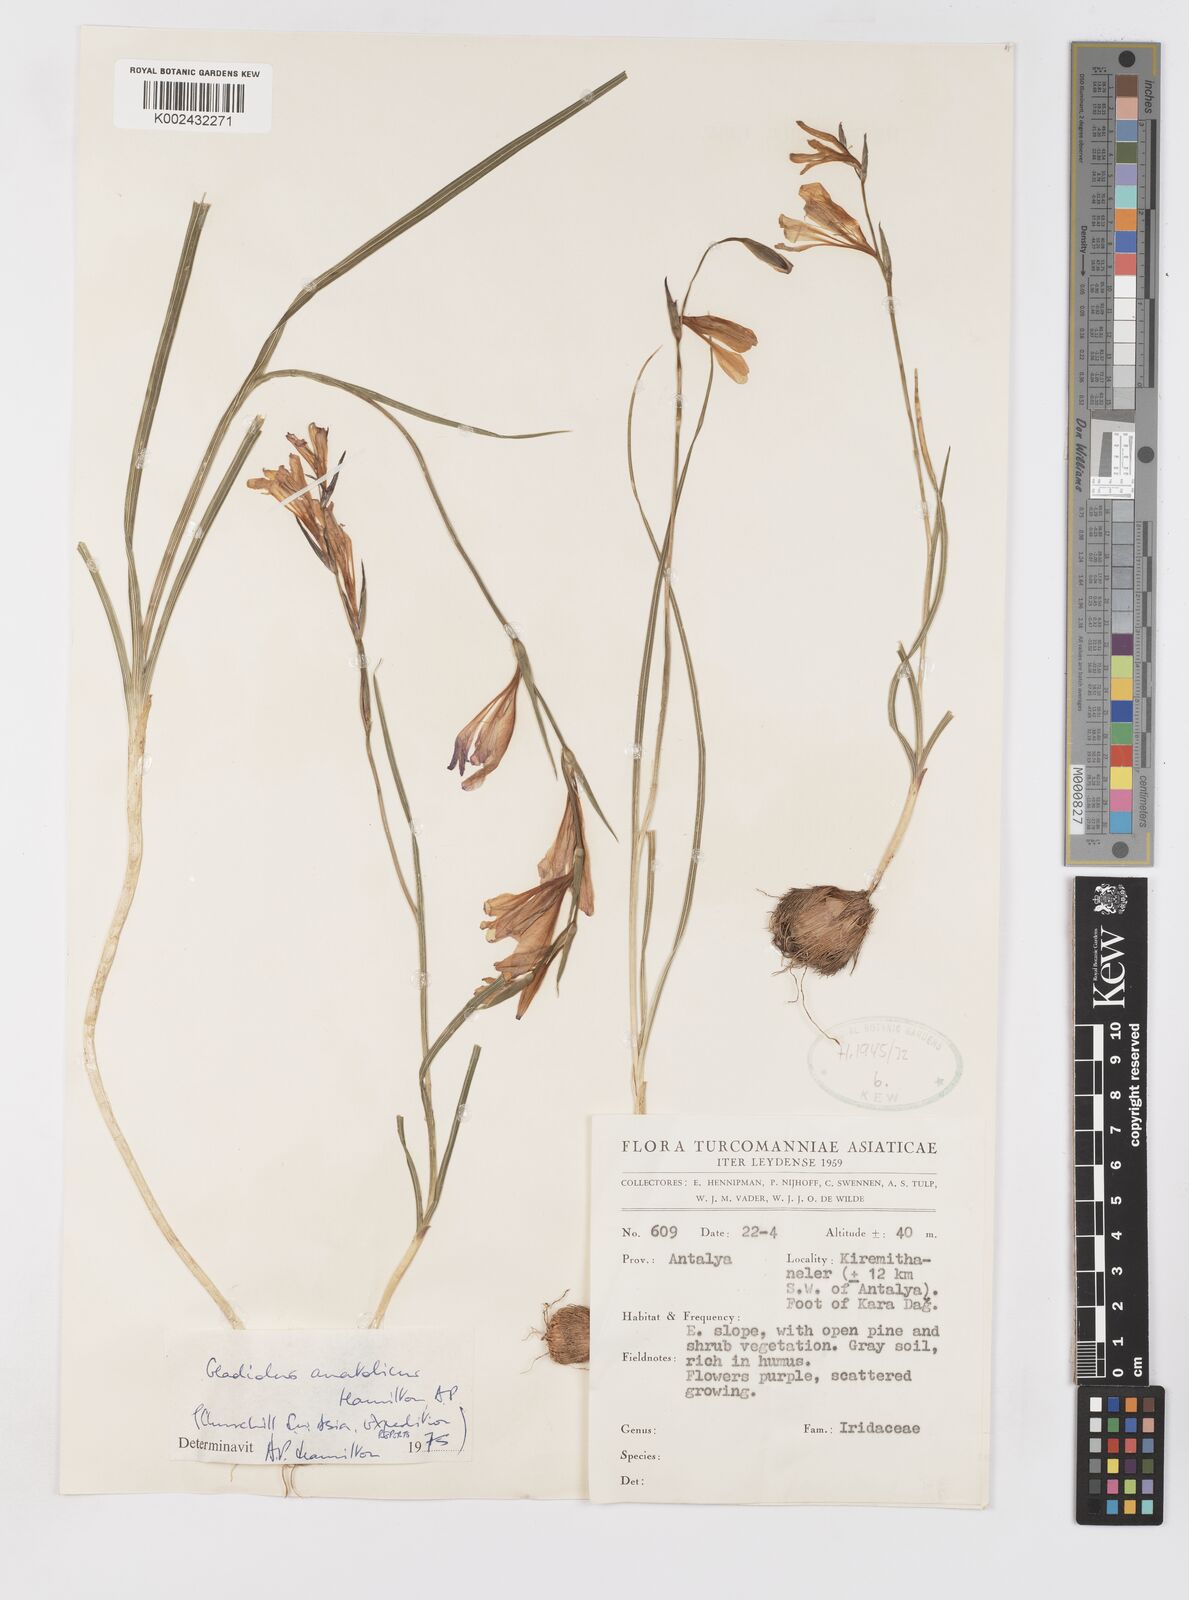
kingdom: Plantae
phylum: Tracheophyta
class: Liliopsida
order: Asparagales
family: Iridaceae
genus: Gladiolus
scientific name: Gladiolus
